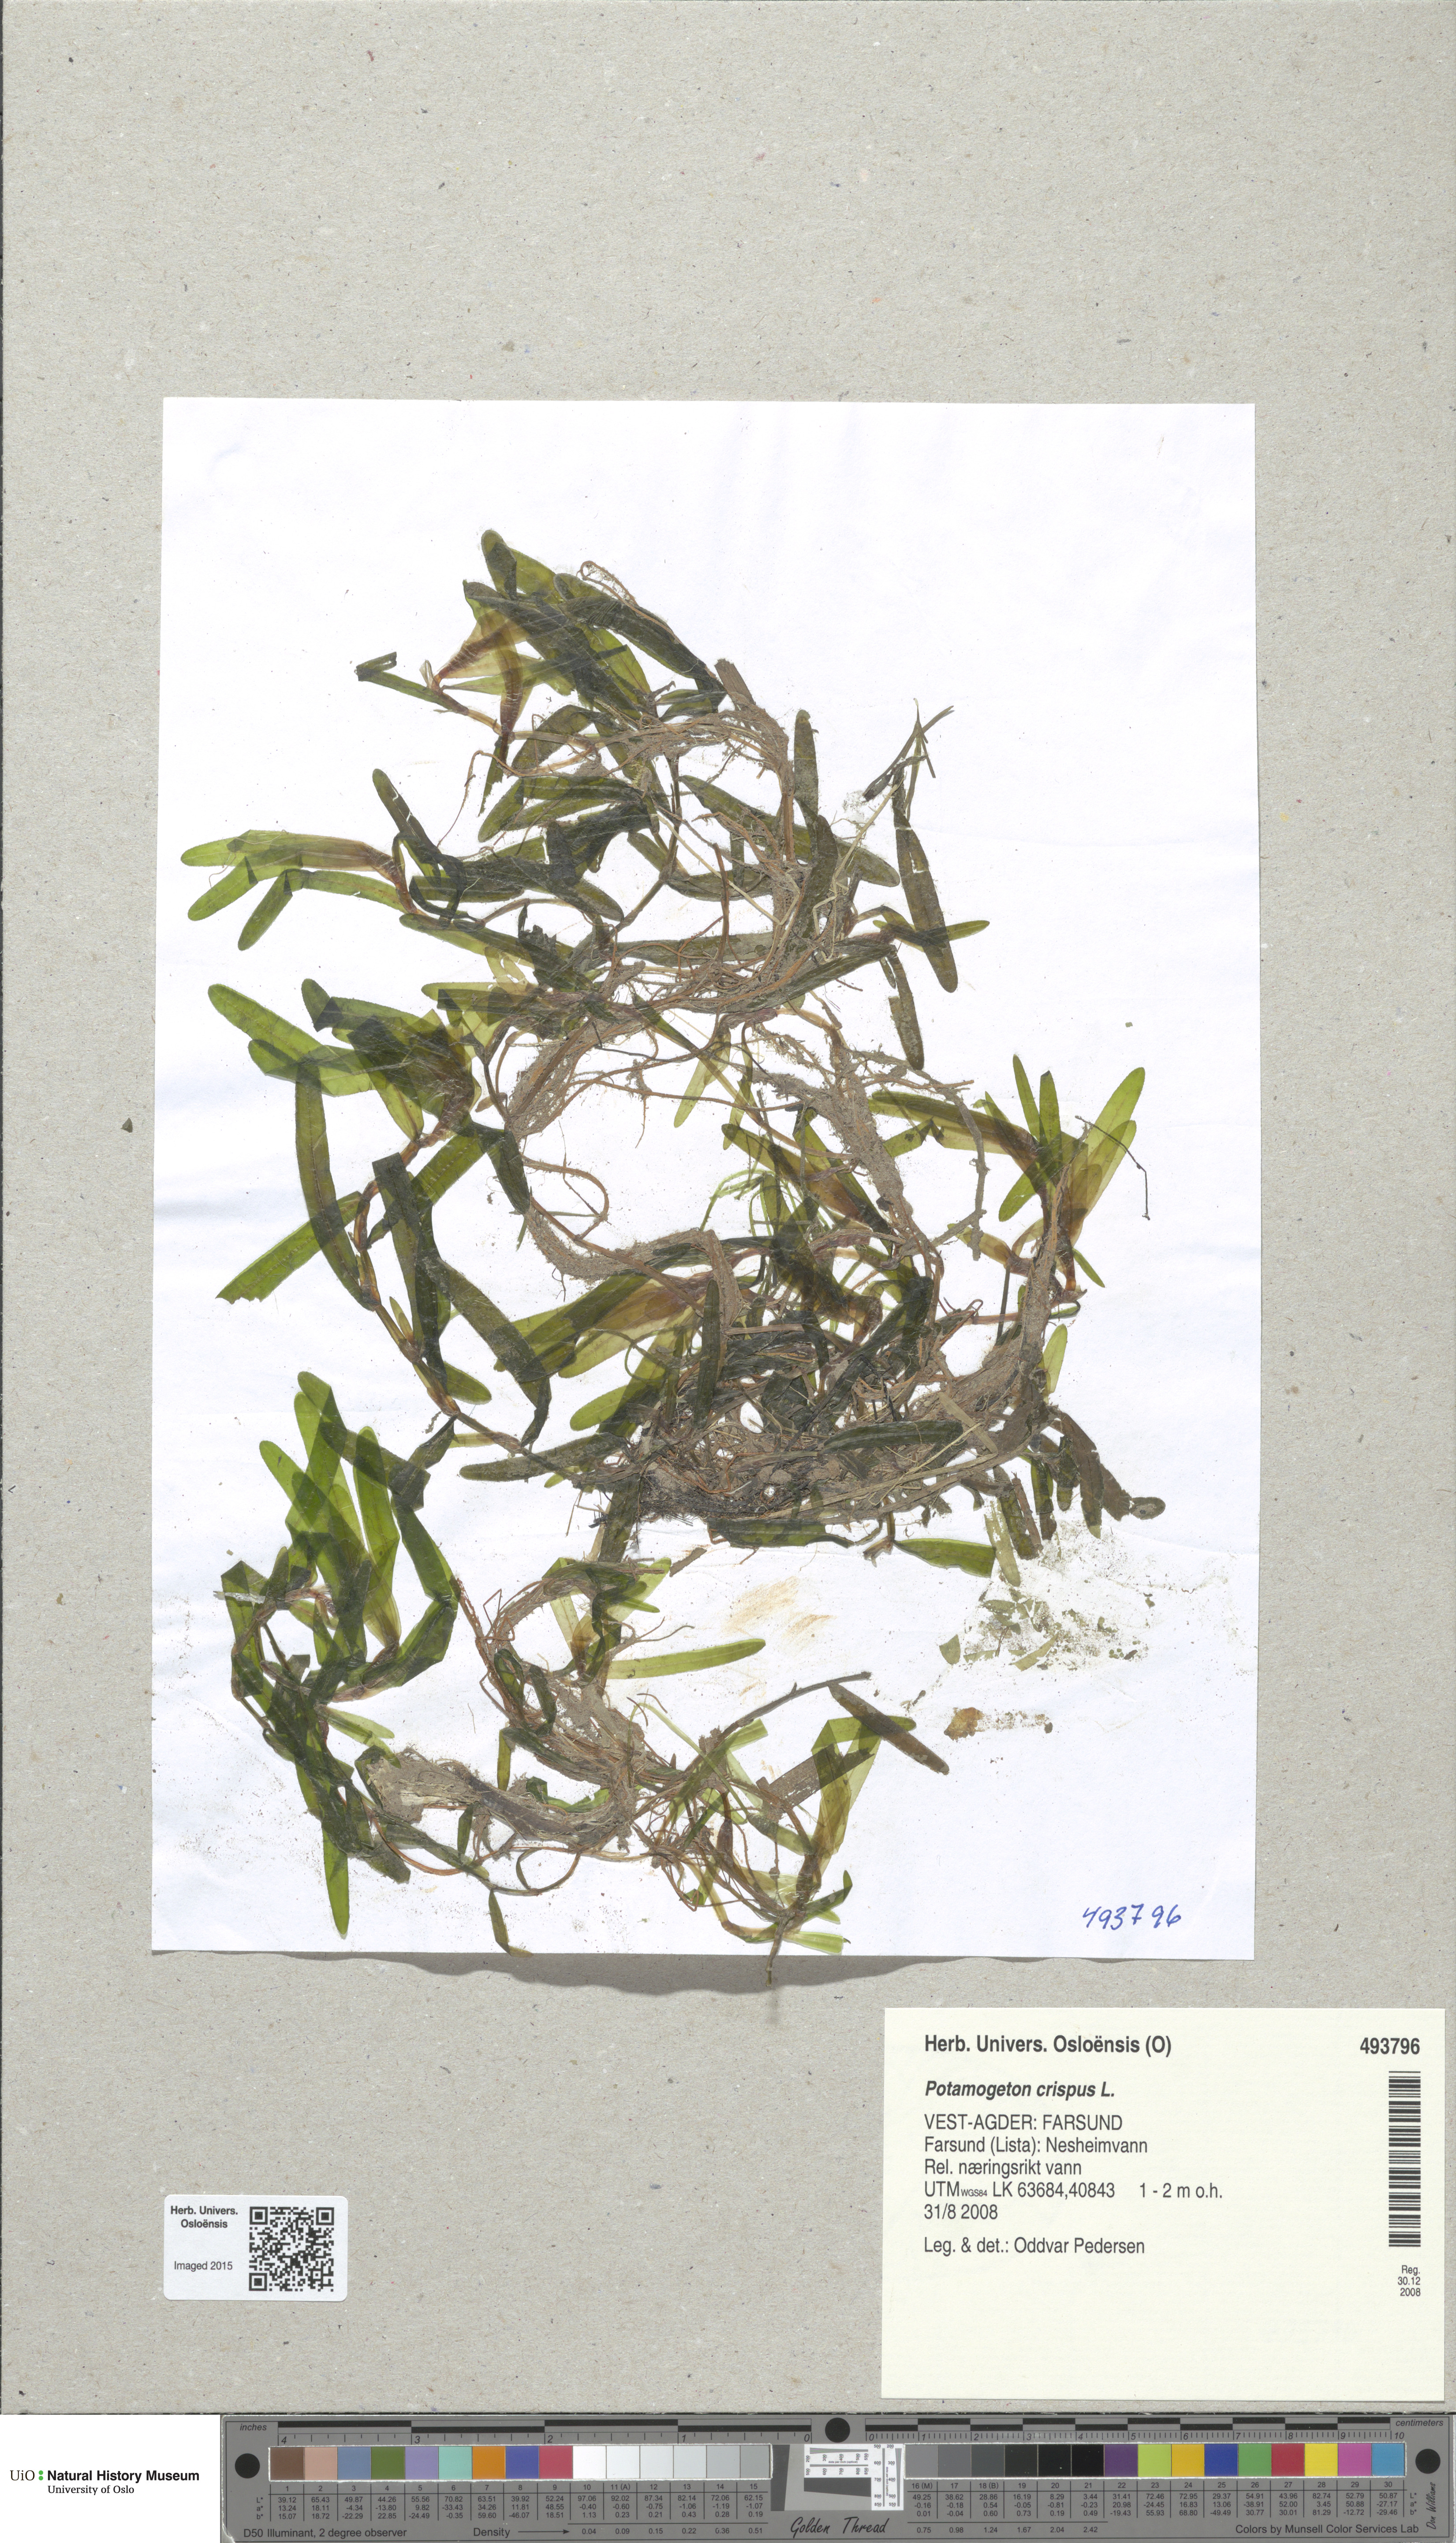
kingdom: Plantae
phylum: Tracheophyta
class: Liliopsida
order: Alismatales
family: Potamogetonaceae
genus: Potamogeton
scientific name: Potamogeton crispus
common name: Curled pondweed
